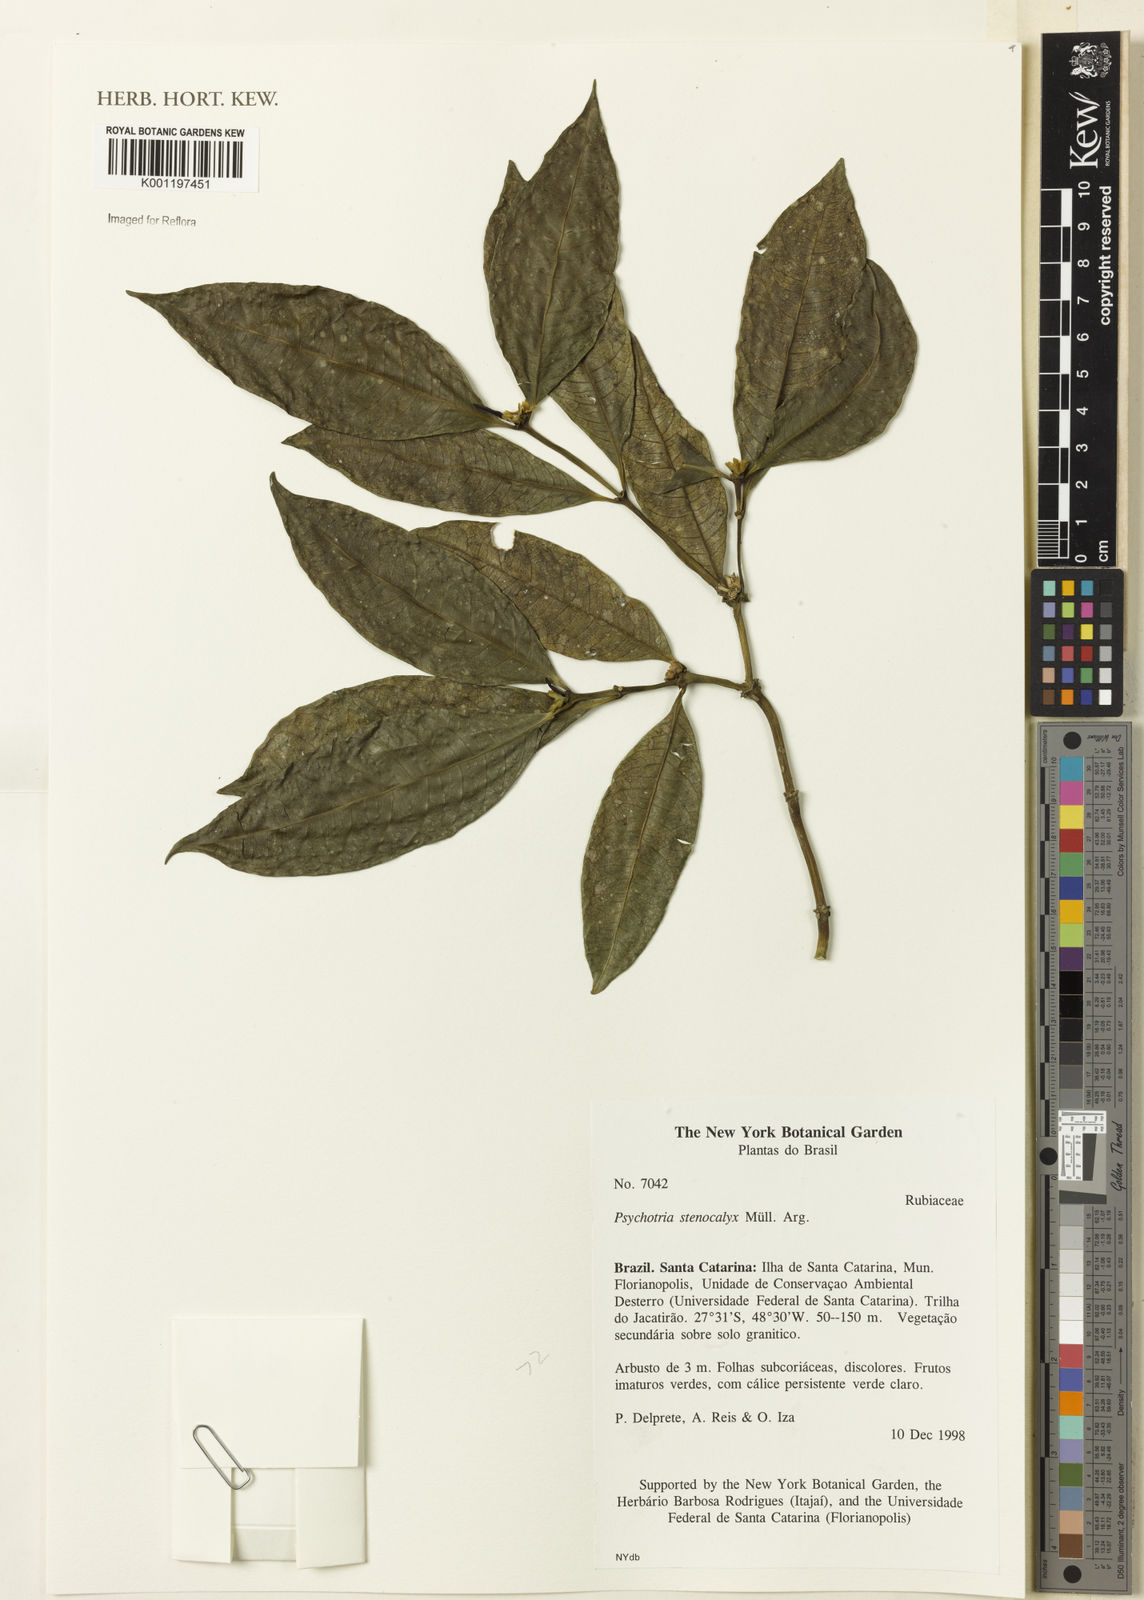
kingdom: Plantae
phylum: Tracheophyta
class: Magnoliopsida
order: Gentianales
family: Rubiaceae
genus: Psychotria
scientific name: Psychotria
